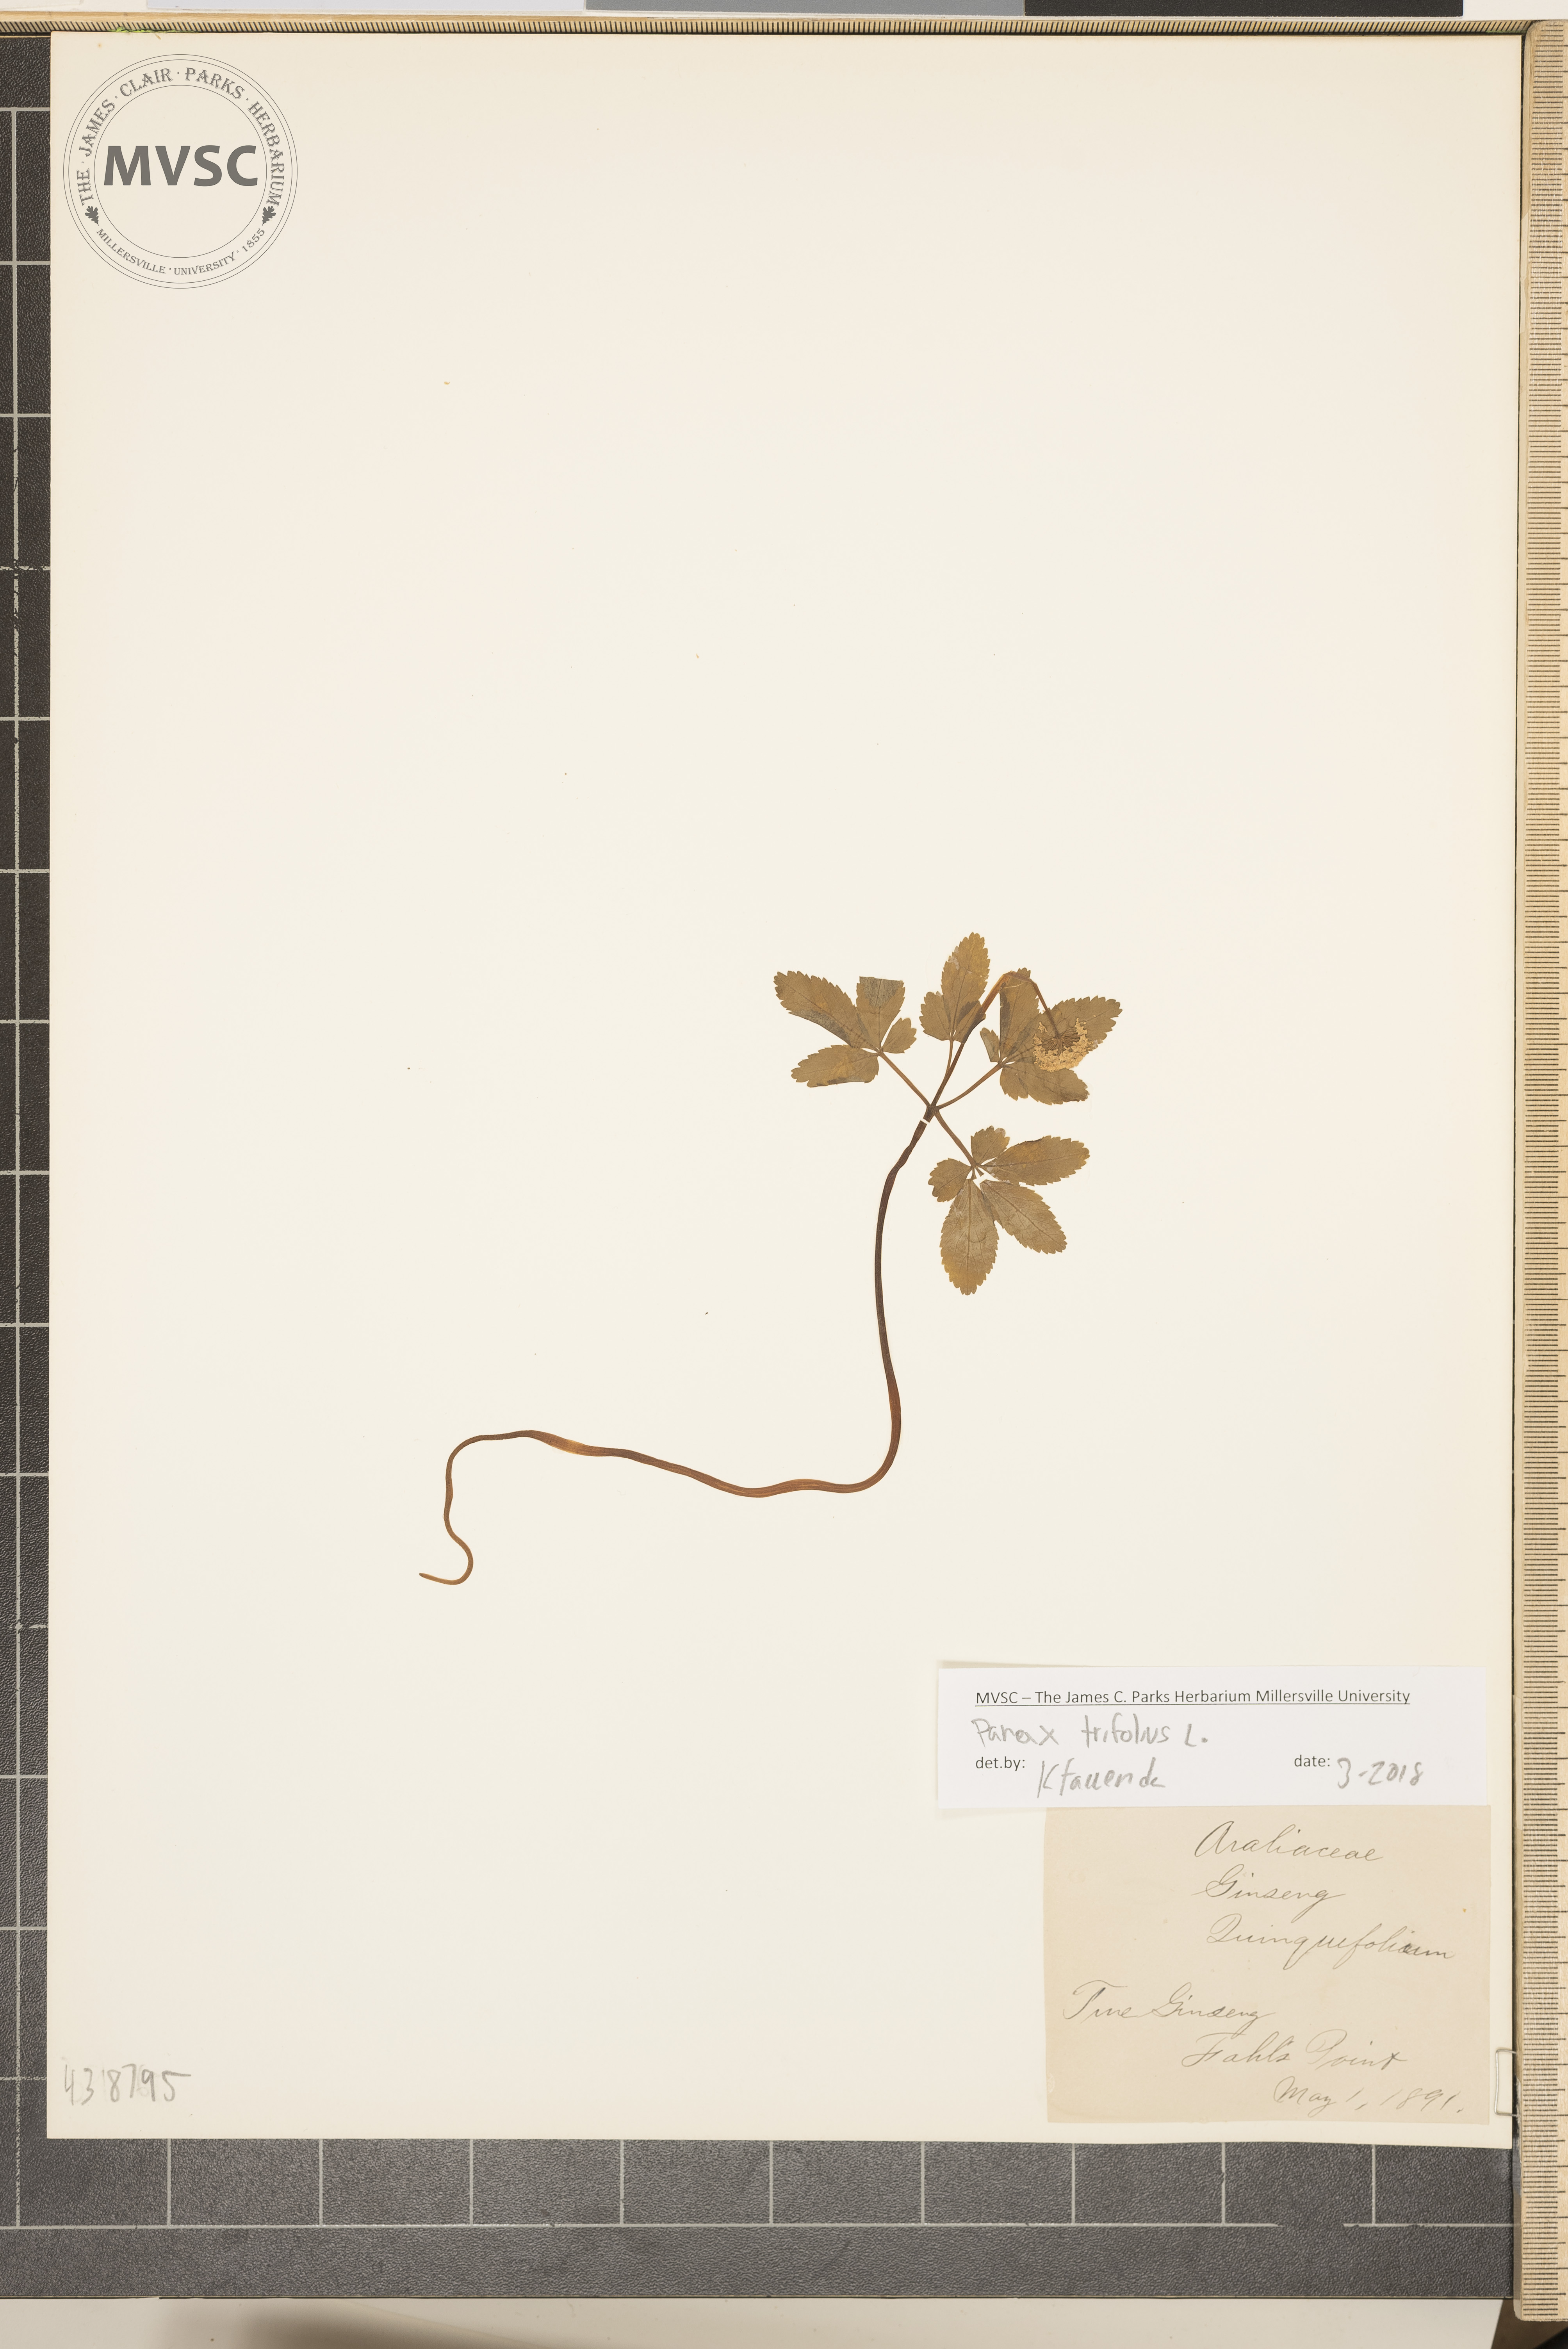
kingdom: Plantae
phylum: Tracheophyta
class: Magnoliopsida
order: Apiales
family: Araliaceae
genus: Panax
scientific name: Panax trifolius
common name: Dwarf ginseng
